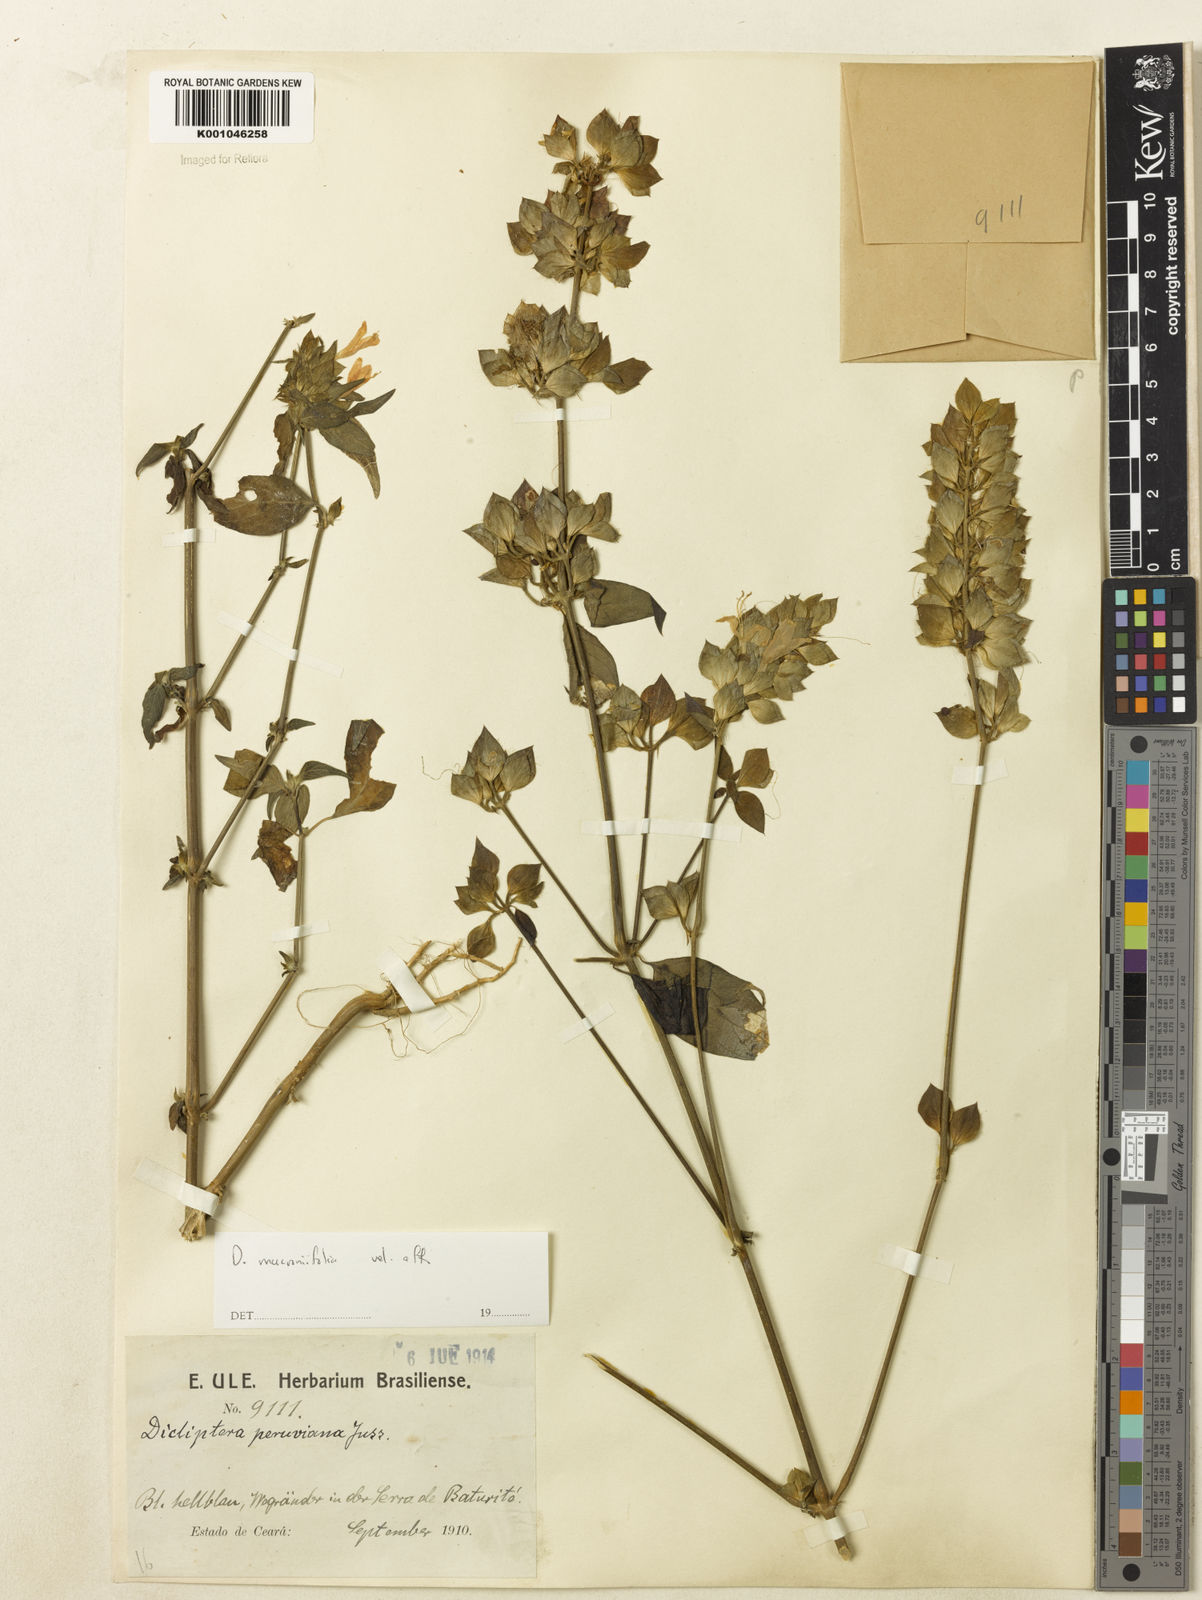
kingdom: Plantae
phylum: Tracheophyta
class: Magnoliopsida
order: Lamiales
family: Acanthaceae
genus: Dicliptera
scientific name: Dicliptera mucronifolia
